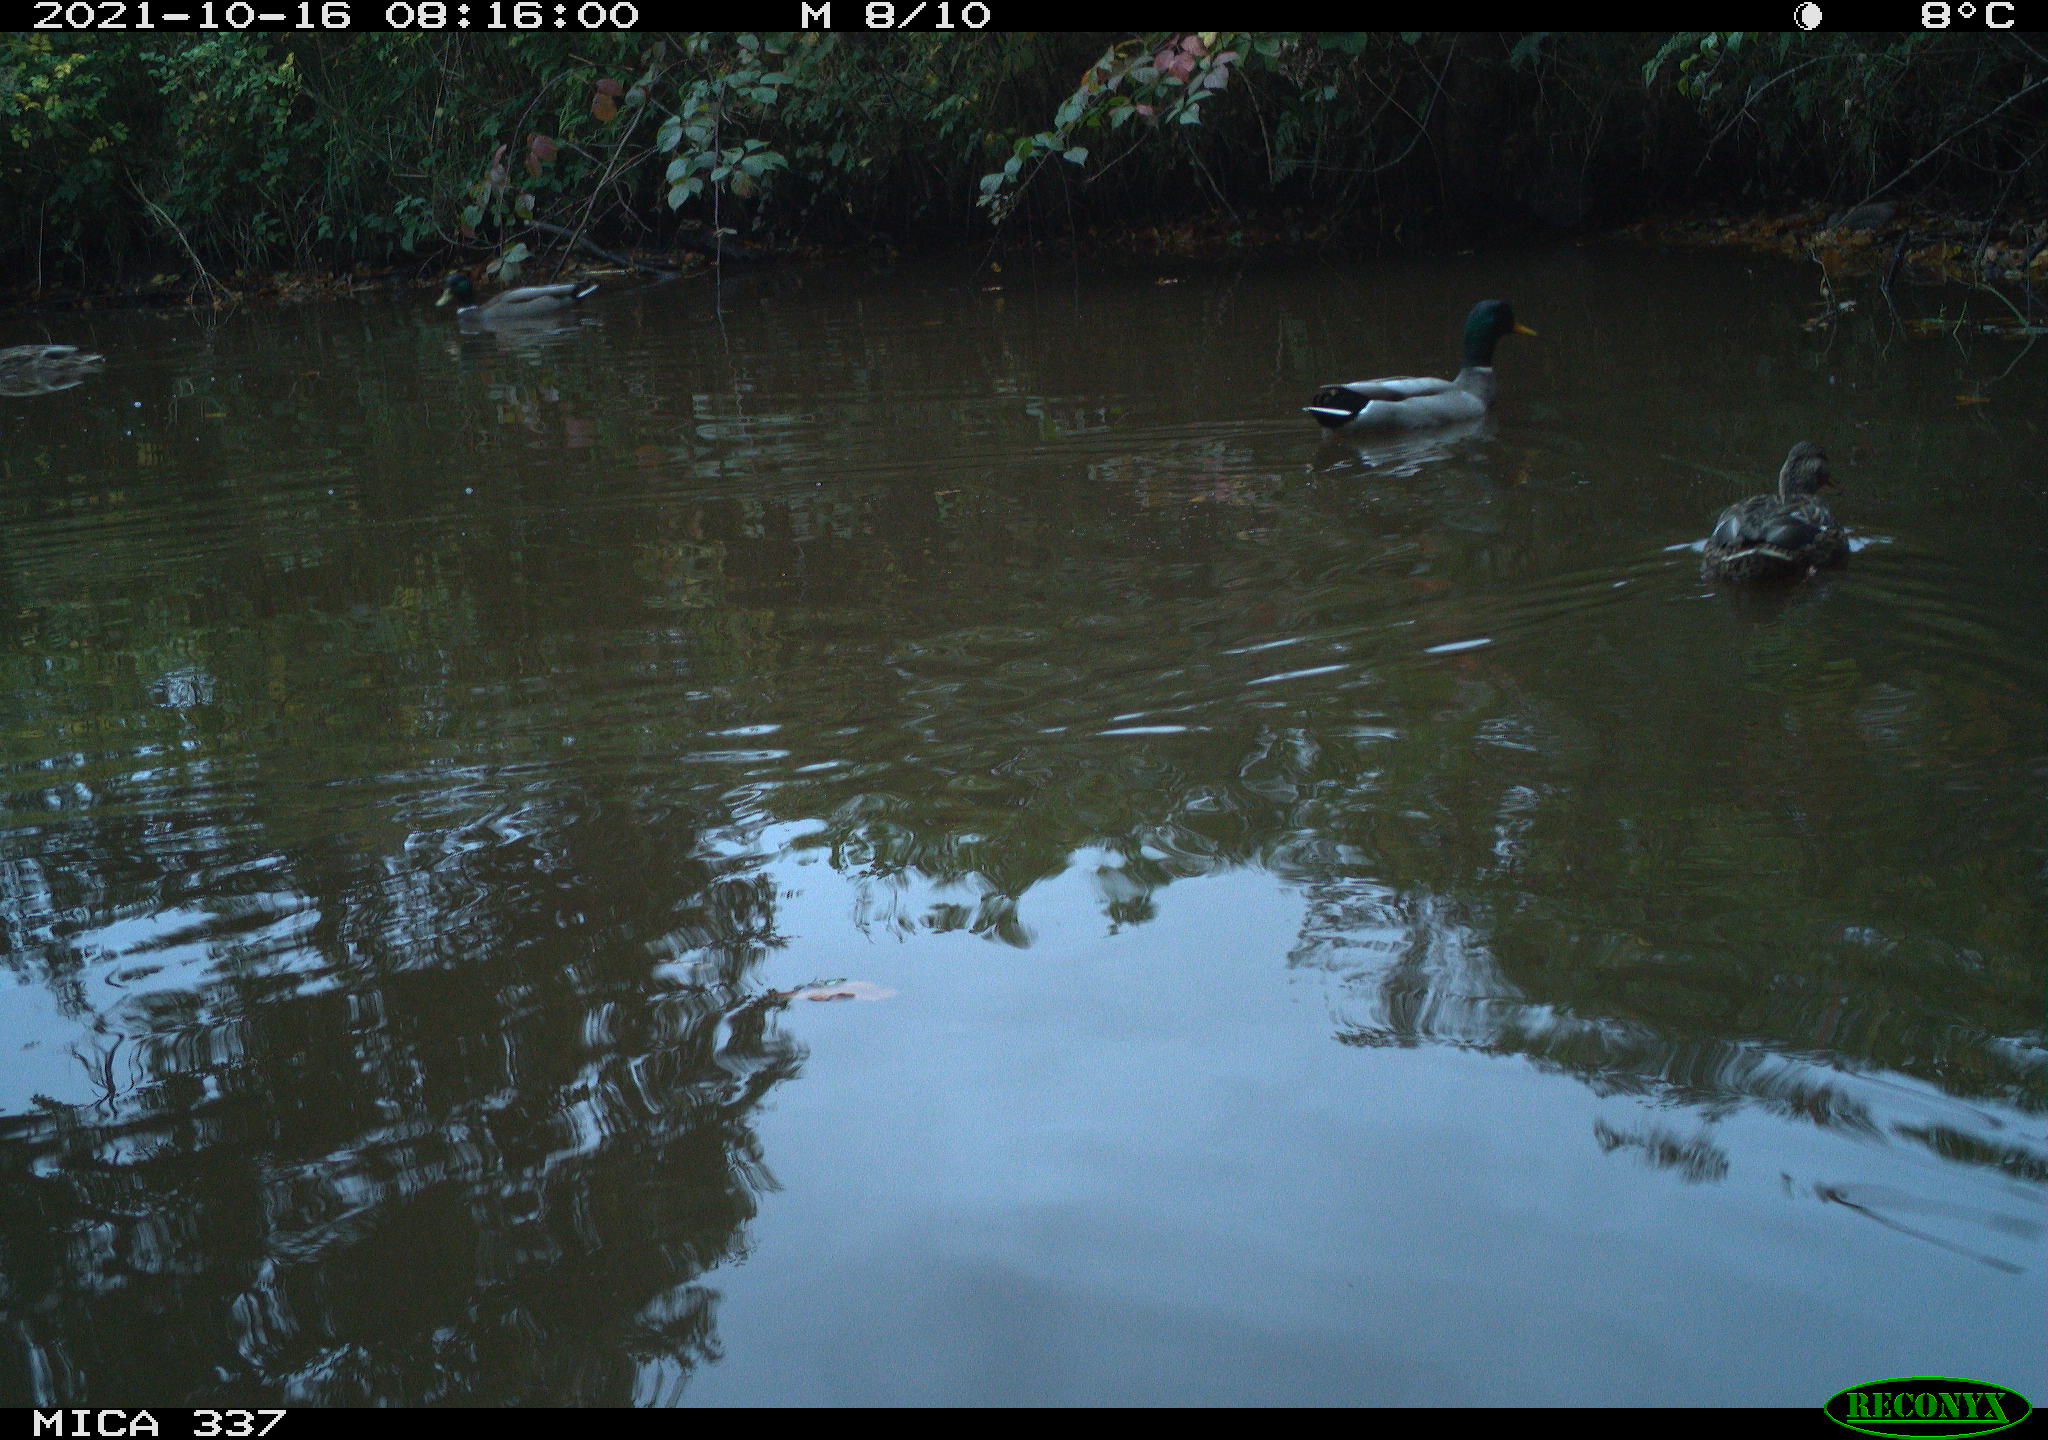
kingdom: Animalia
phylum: Chordata
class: Aves
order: Anseriformes
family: Anatidae
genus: Anas
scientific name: Anas platyrhynchos
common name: Mallard
